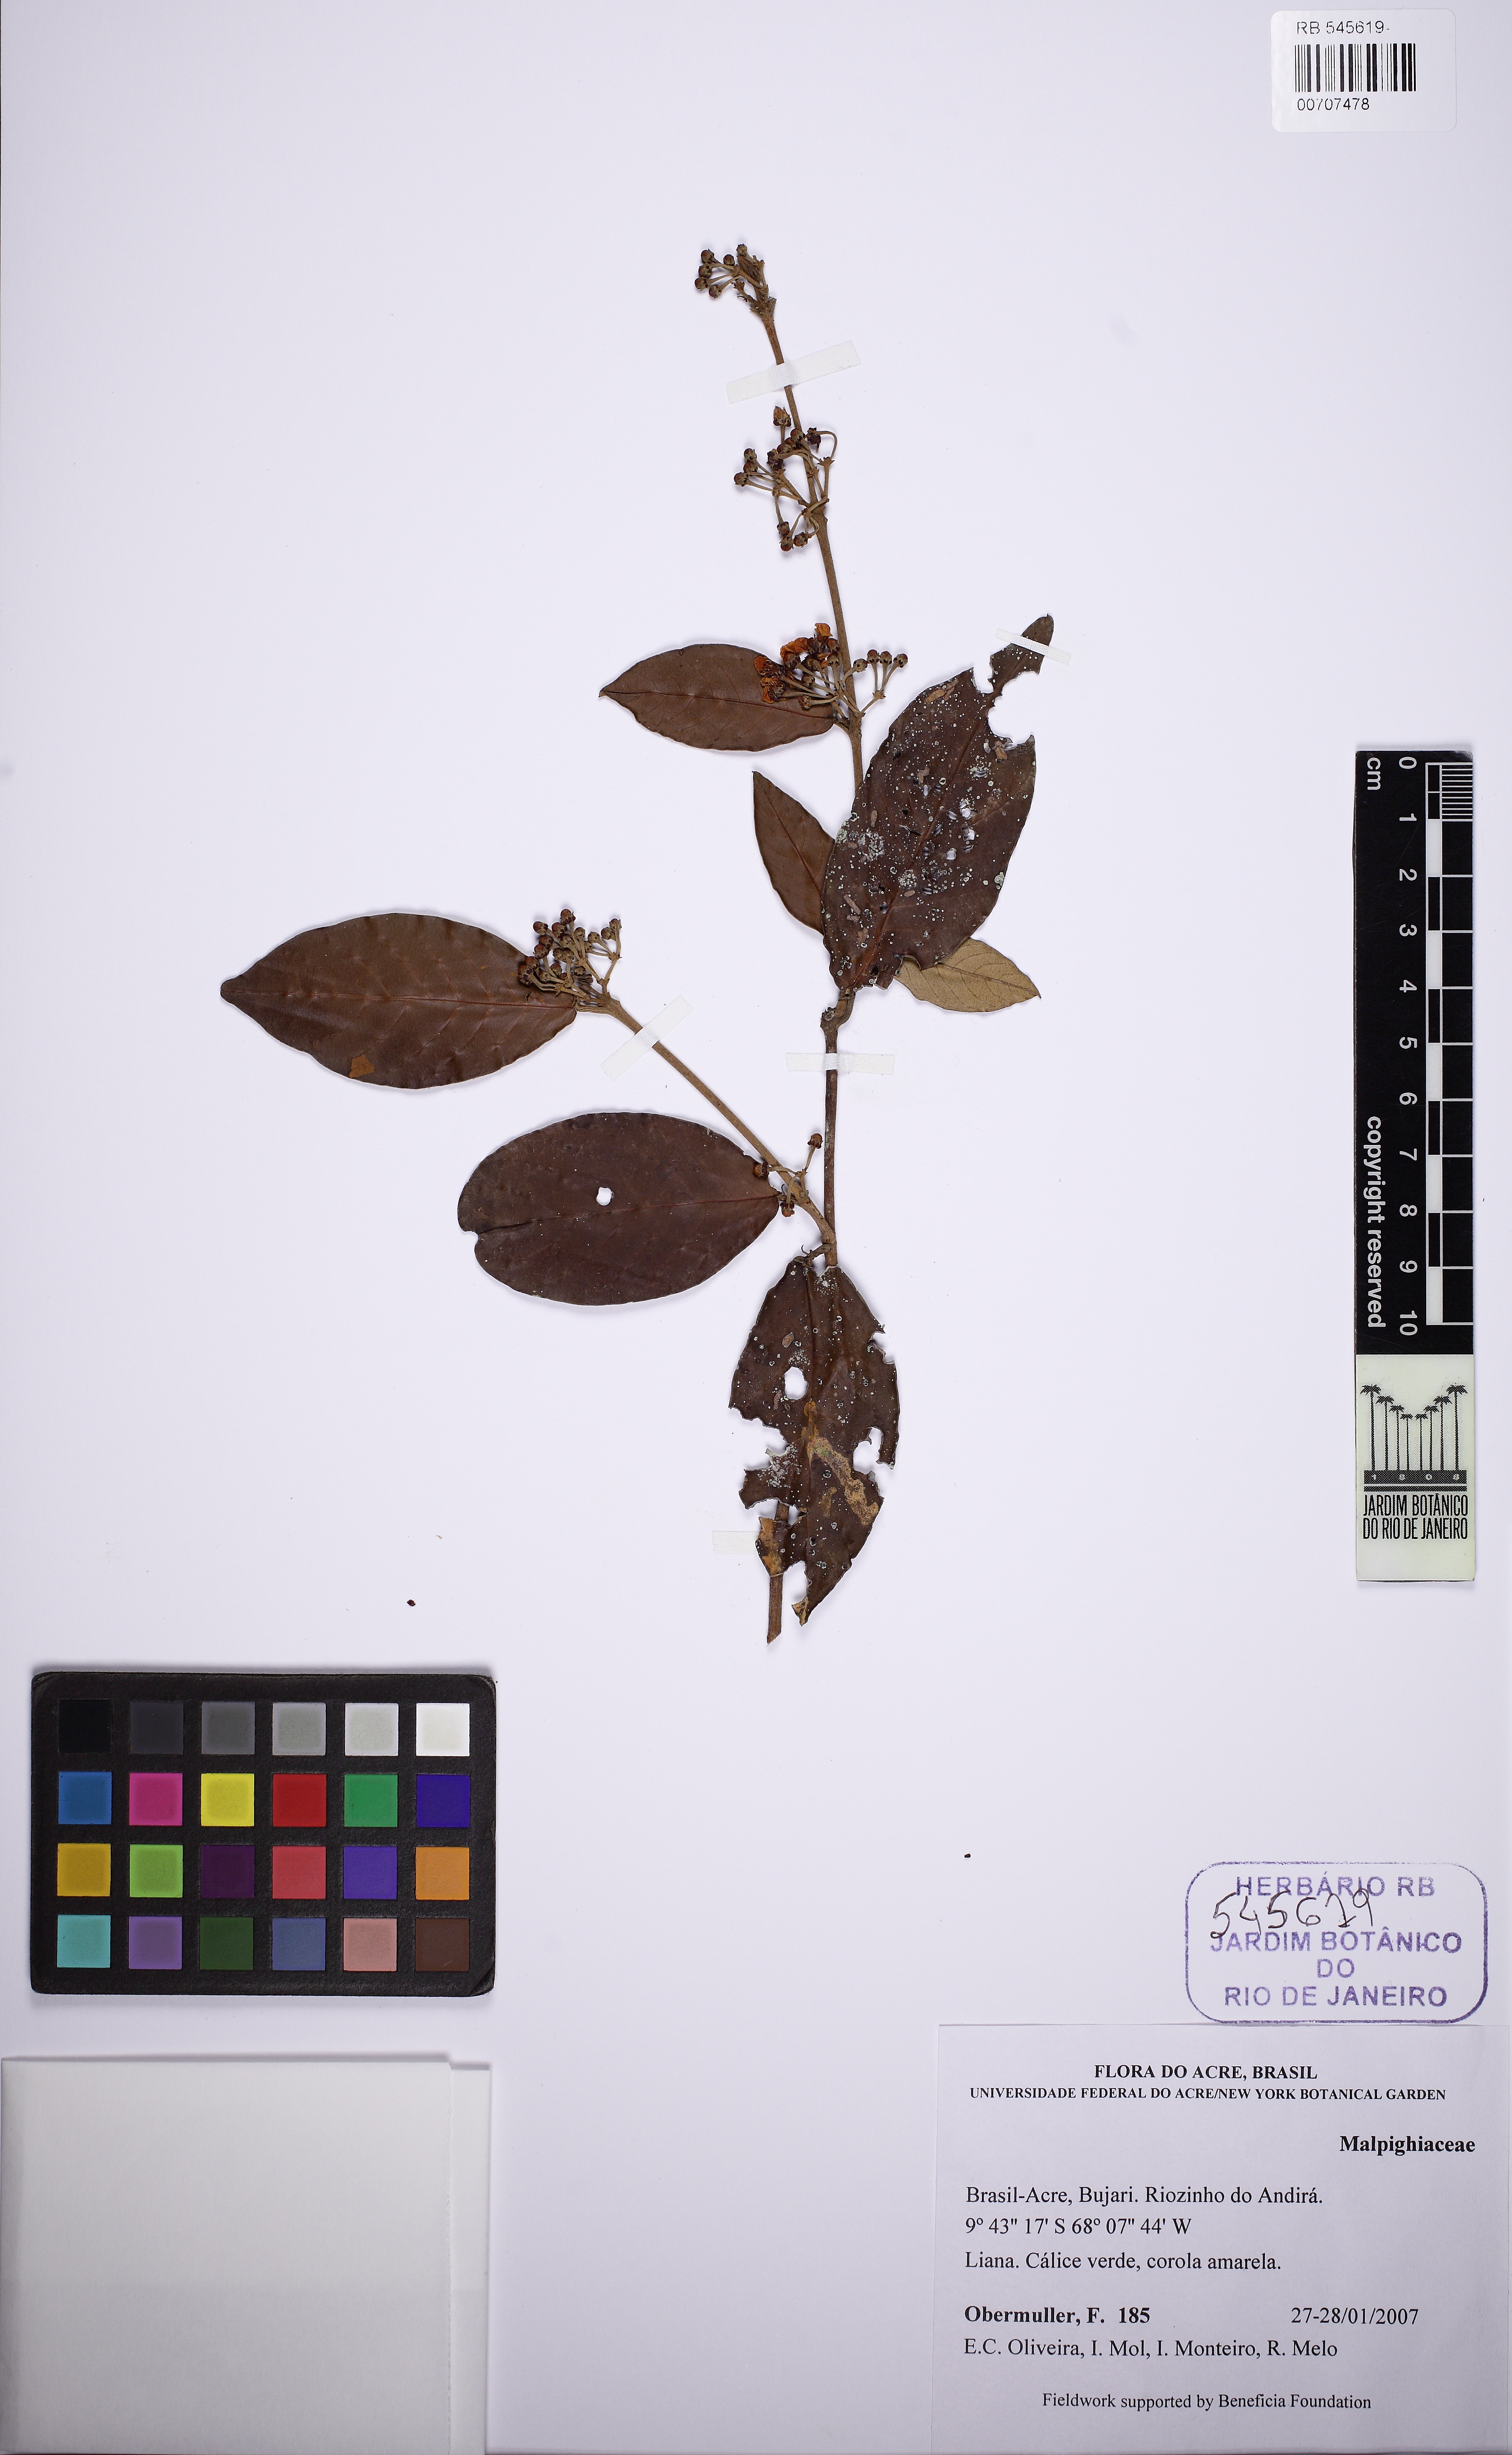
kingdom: Plantae
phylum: Tracheophyta
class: Magnoliopsida
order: Malpighiales
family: Malpighiaceae
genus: Hiraea
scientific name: Hiraea
